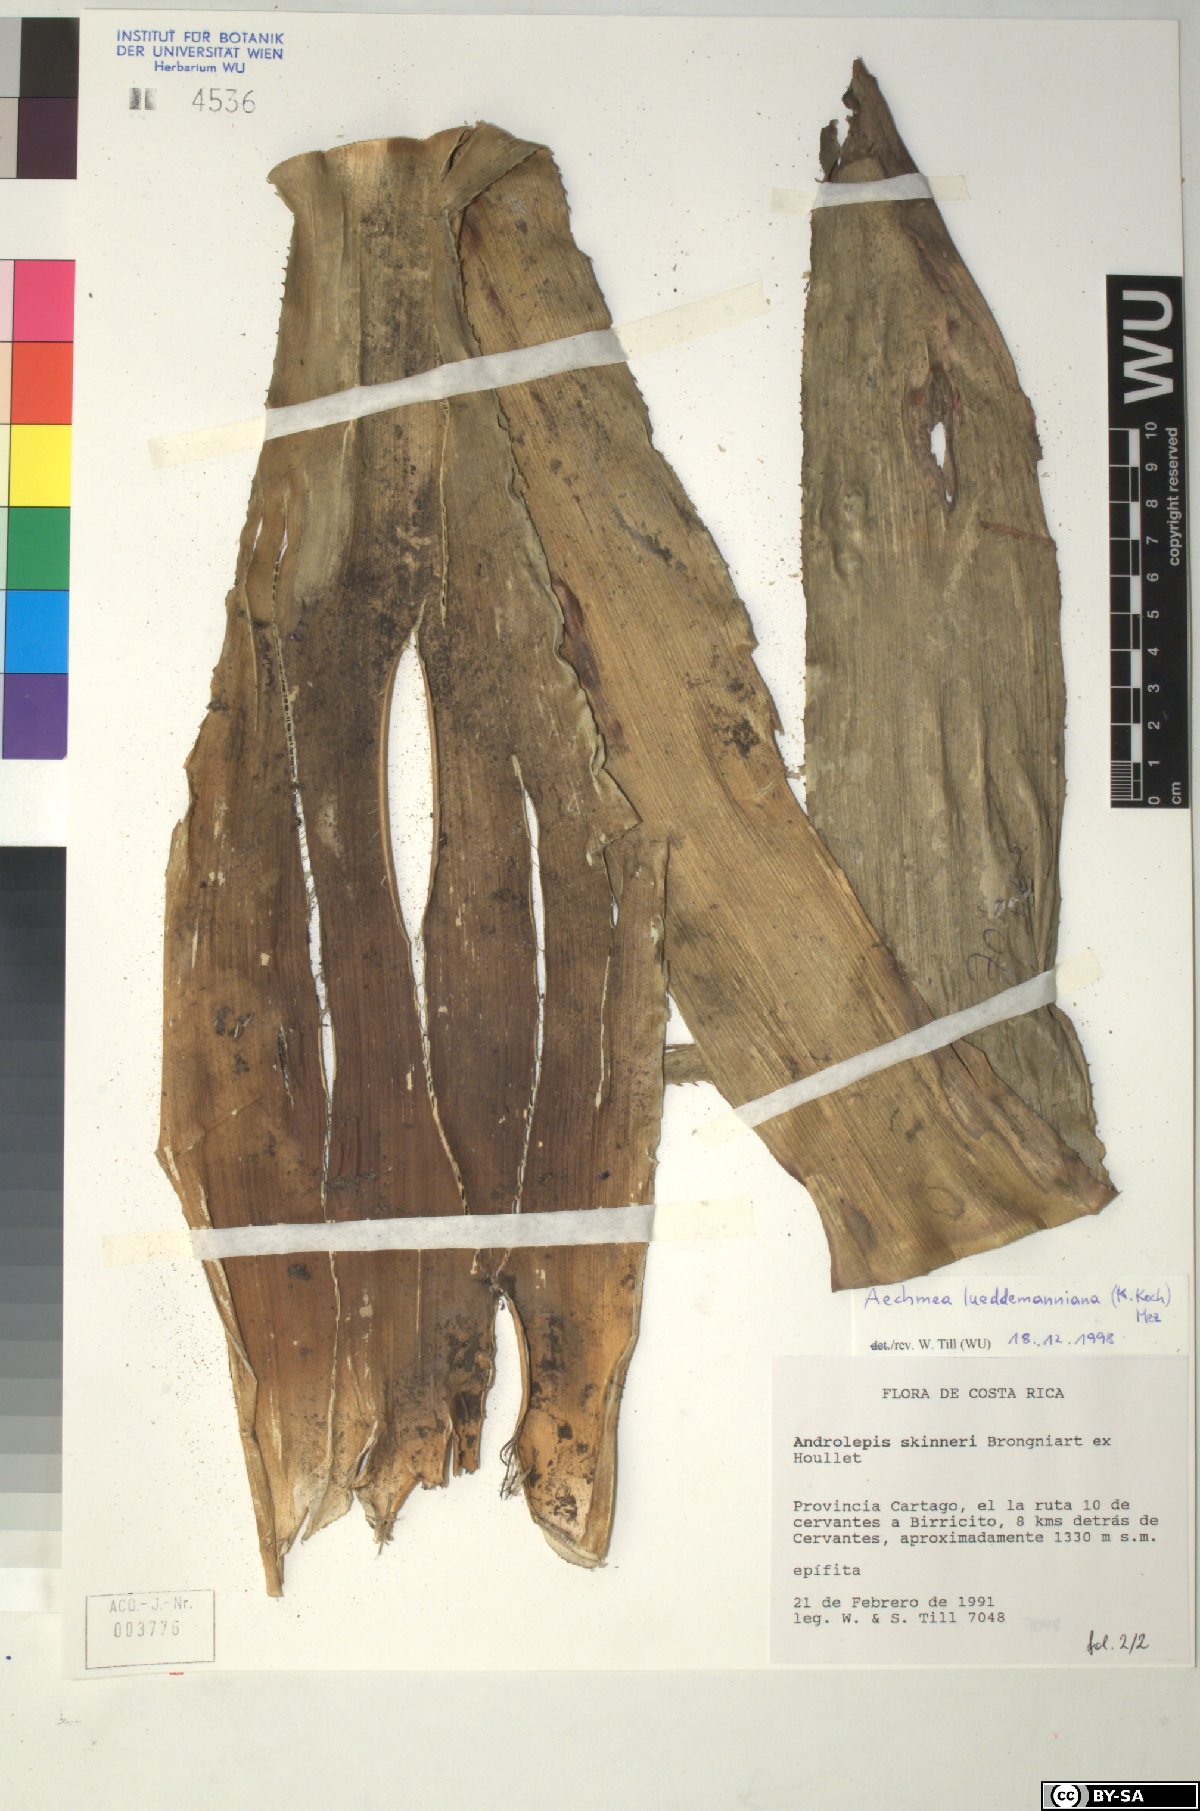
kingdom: Plantae
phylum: Tracheophyta
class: Liliopsida
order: Poales
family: Bromeliaceae
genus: Aechmea
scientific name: Aechmea lueddemanniana
